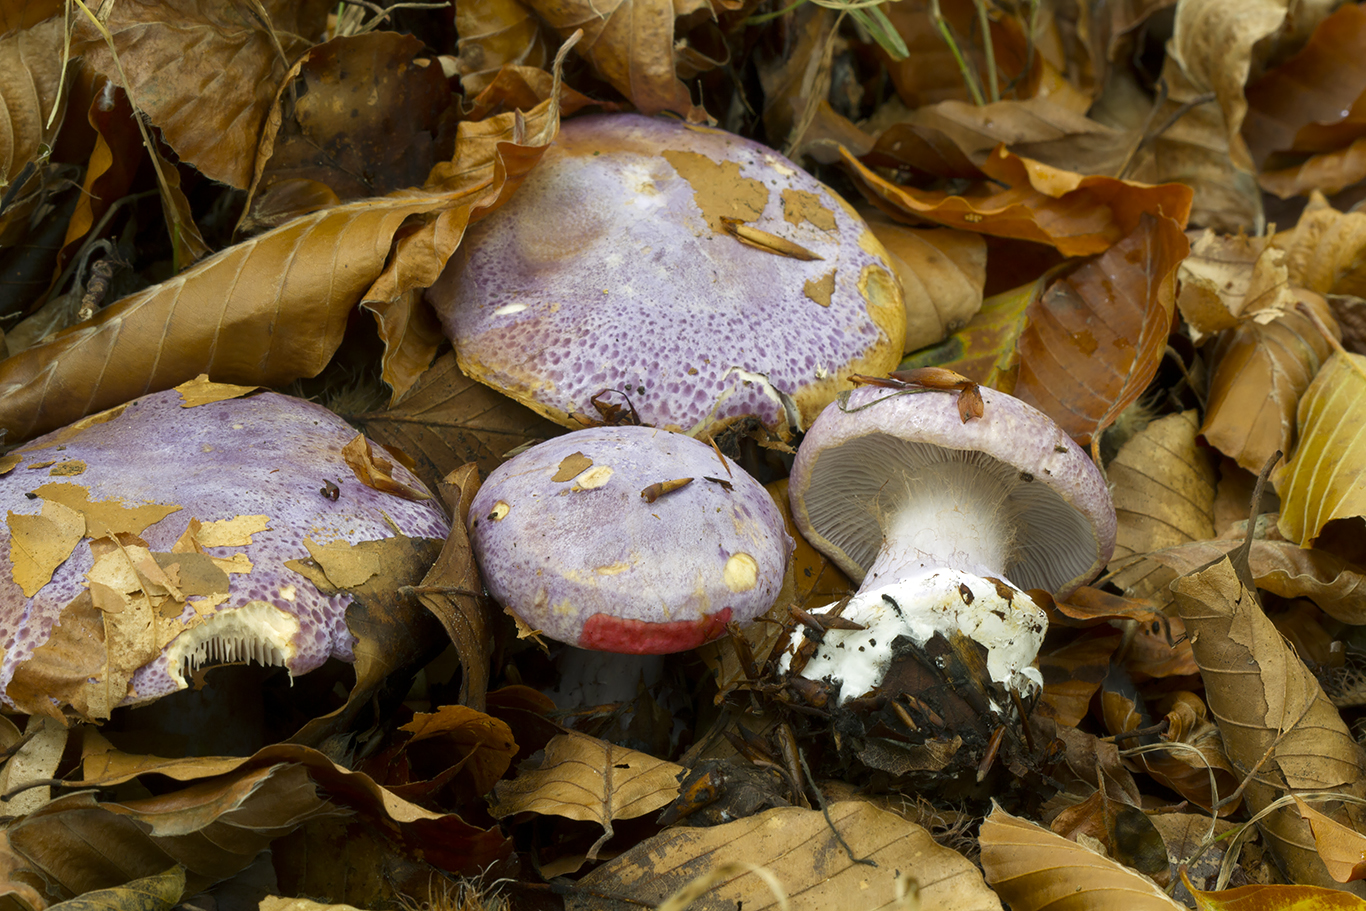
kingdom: Fungi
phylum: Basidiomycota
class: Agaricomycetes
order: Agaricales
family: Cortinariaceae
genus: Calonarius
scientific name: Calonarius sodagnitus
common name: violblå slørhat
